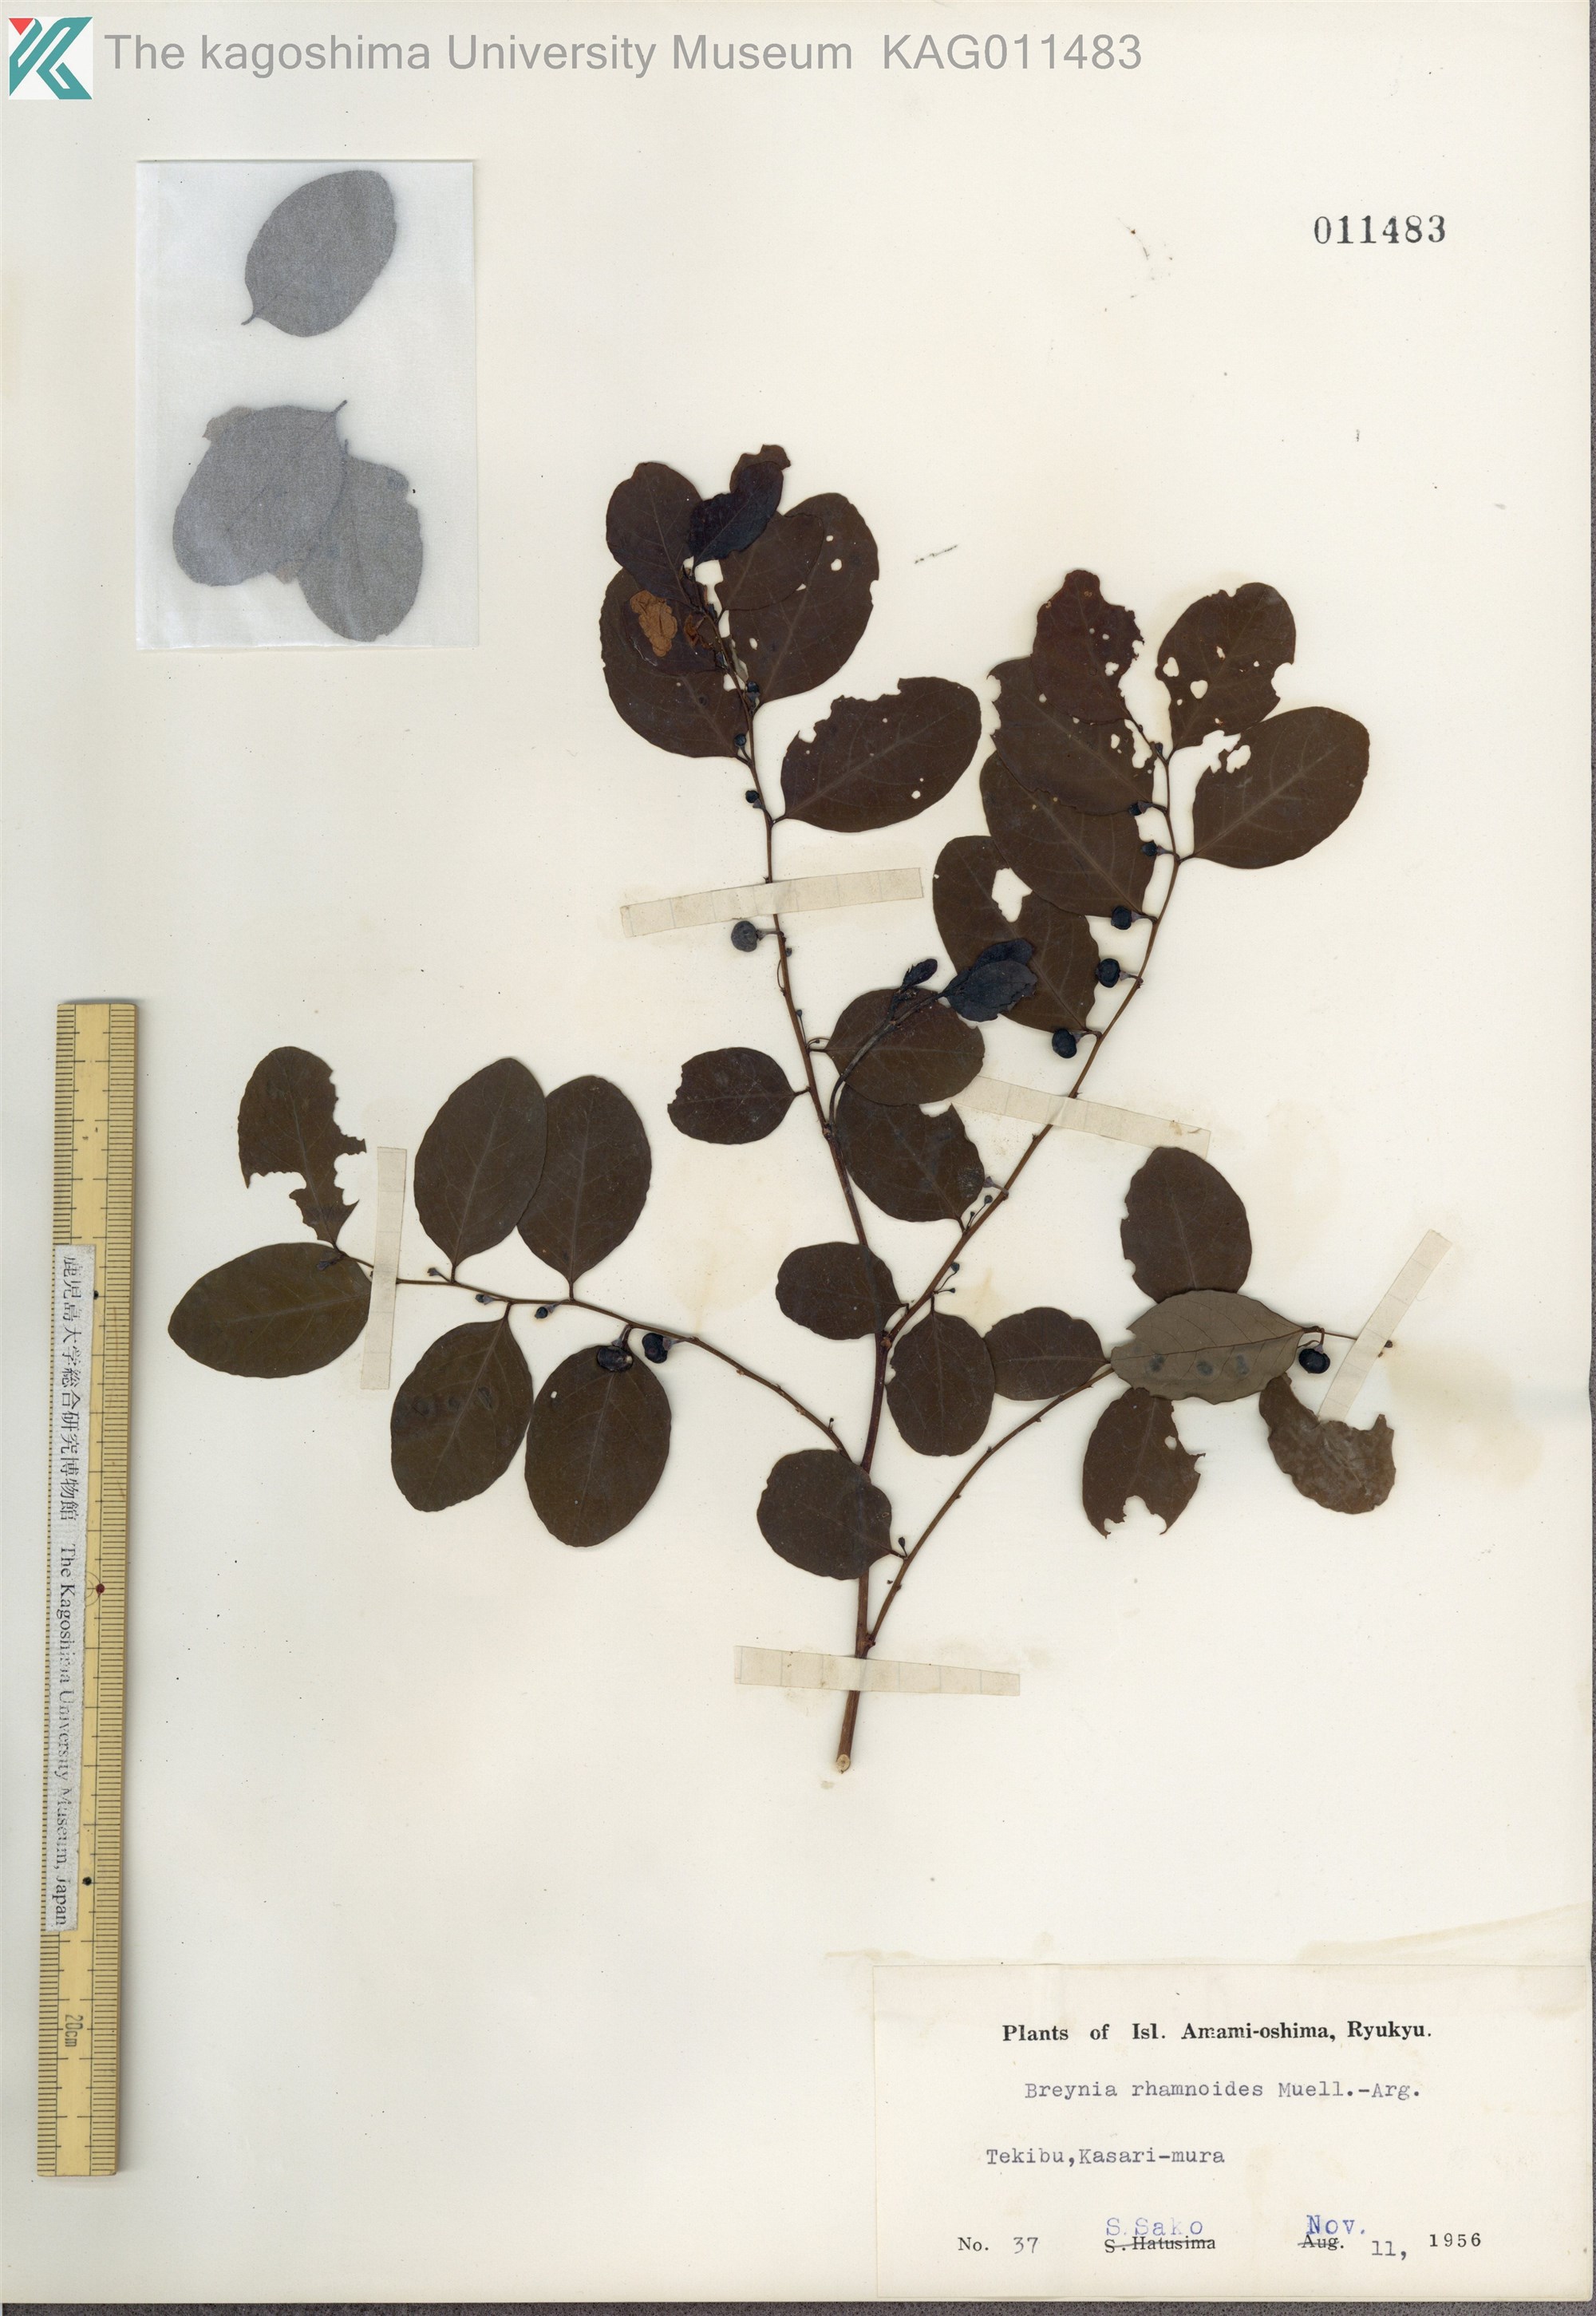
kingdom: Plantae
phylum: Tracheophyta
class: Magnoliopsida
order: Malpighiales
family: Phyllanthaceae
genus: Breynia
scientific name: Breynia vitis-idaea
